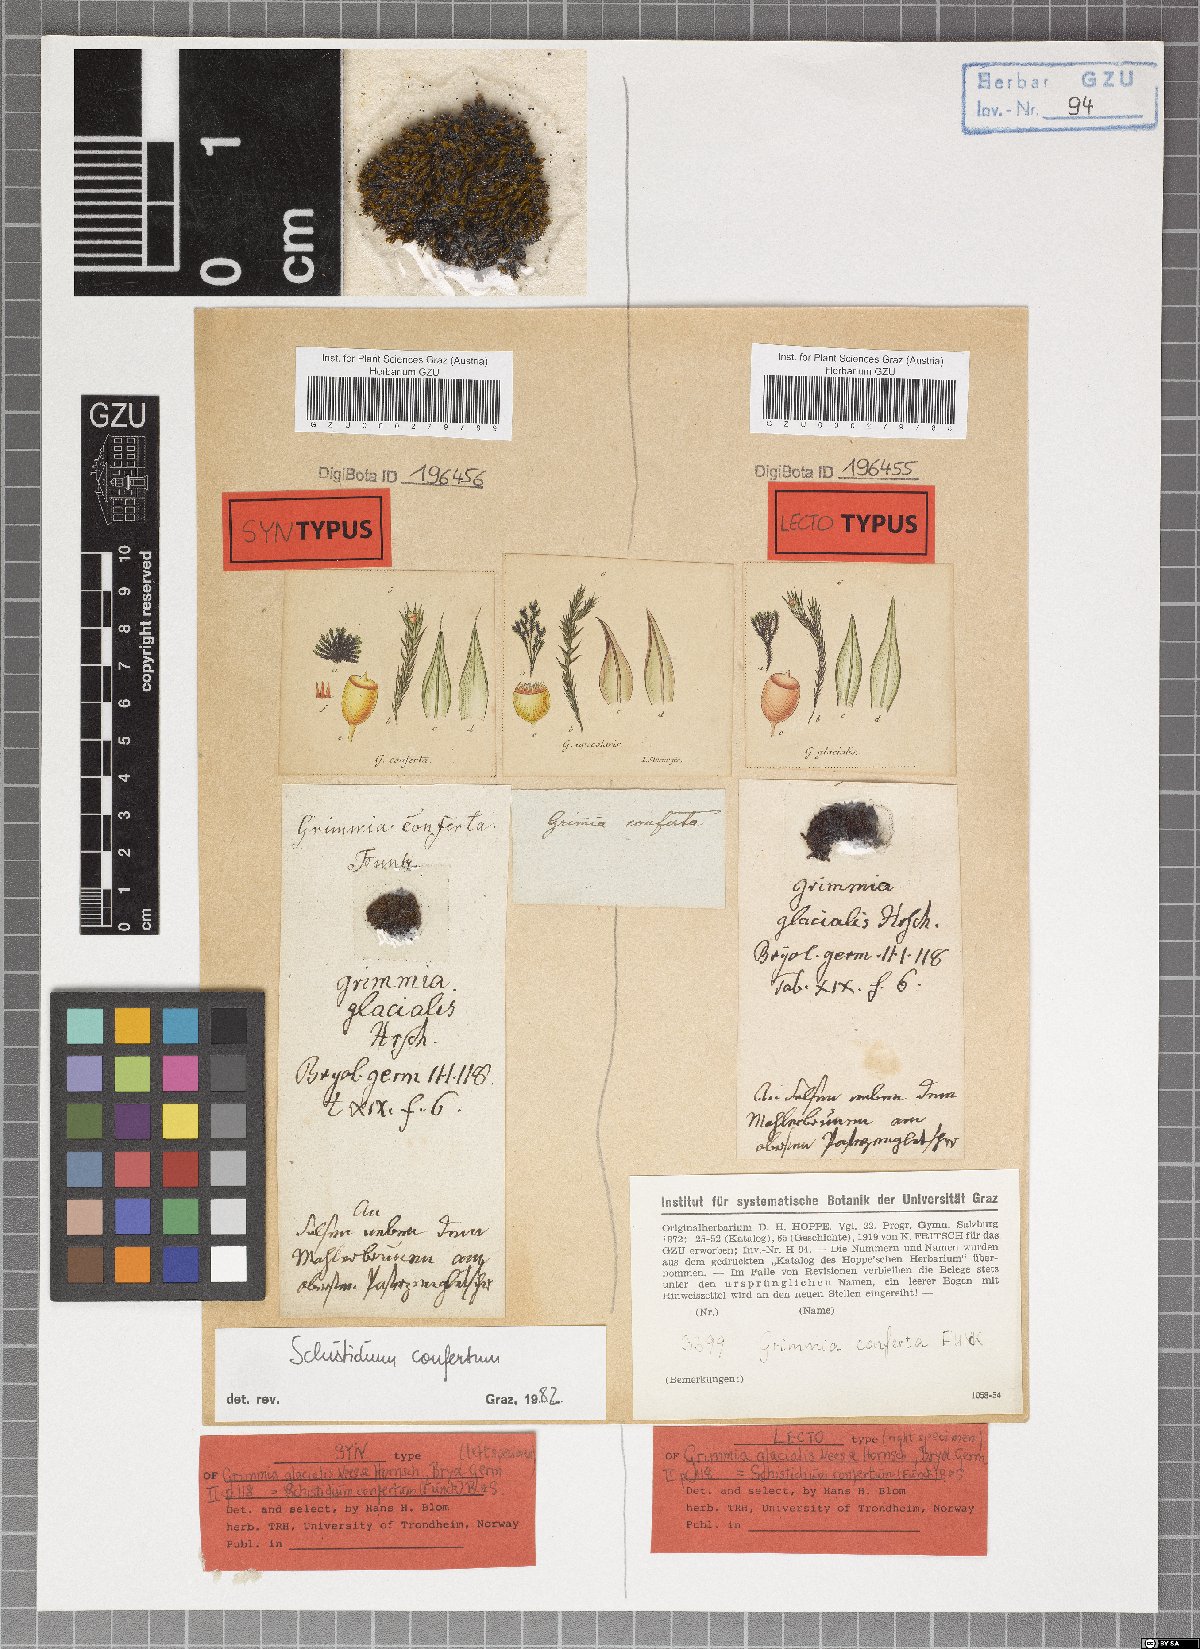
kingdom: Plantae
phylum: Bryophyta
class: Bryopsida
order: Grimmiales
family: Grimmiaceae
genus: Schistidium
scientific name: Schistidium confertum
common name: Compact grimmia
